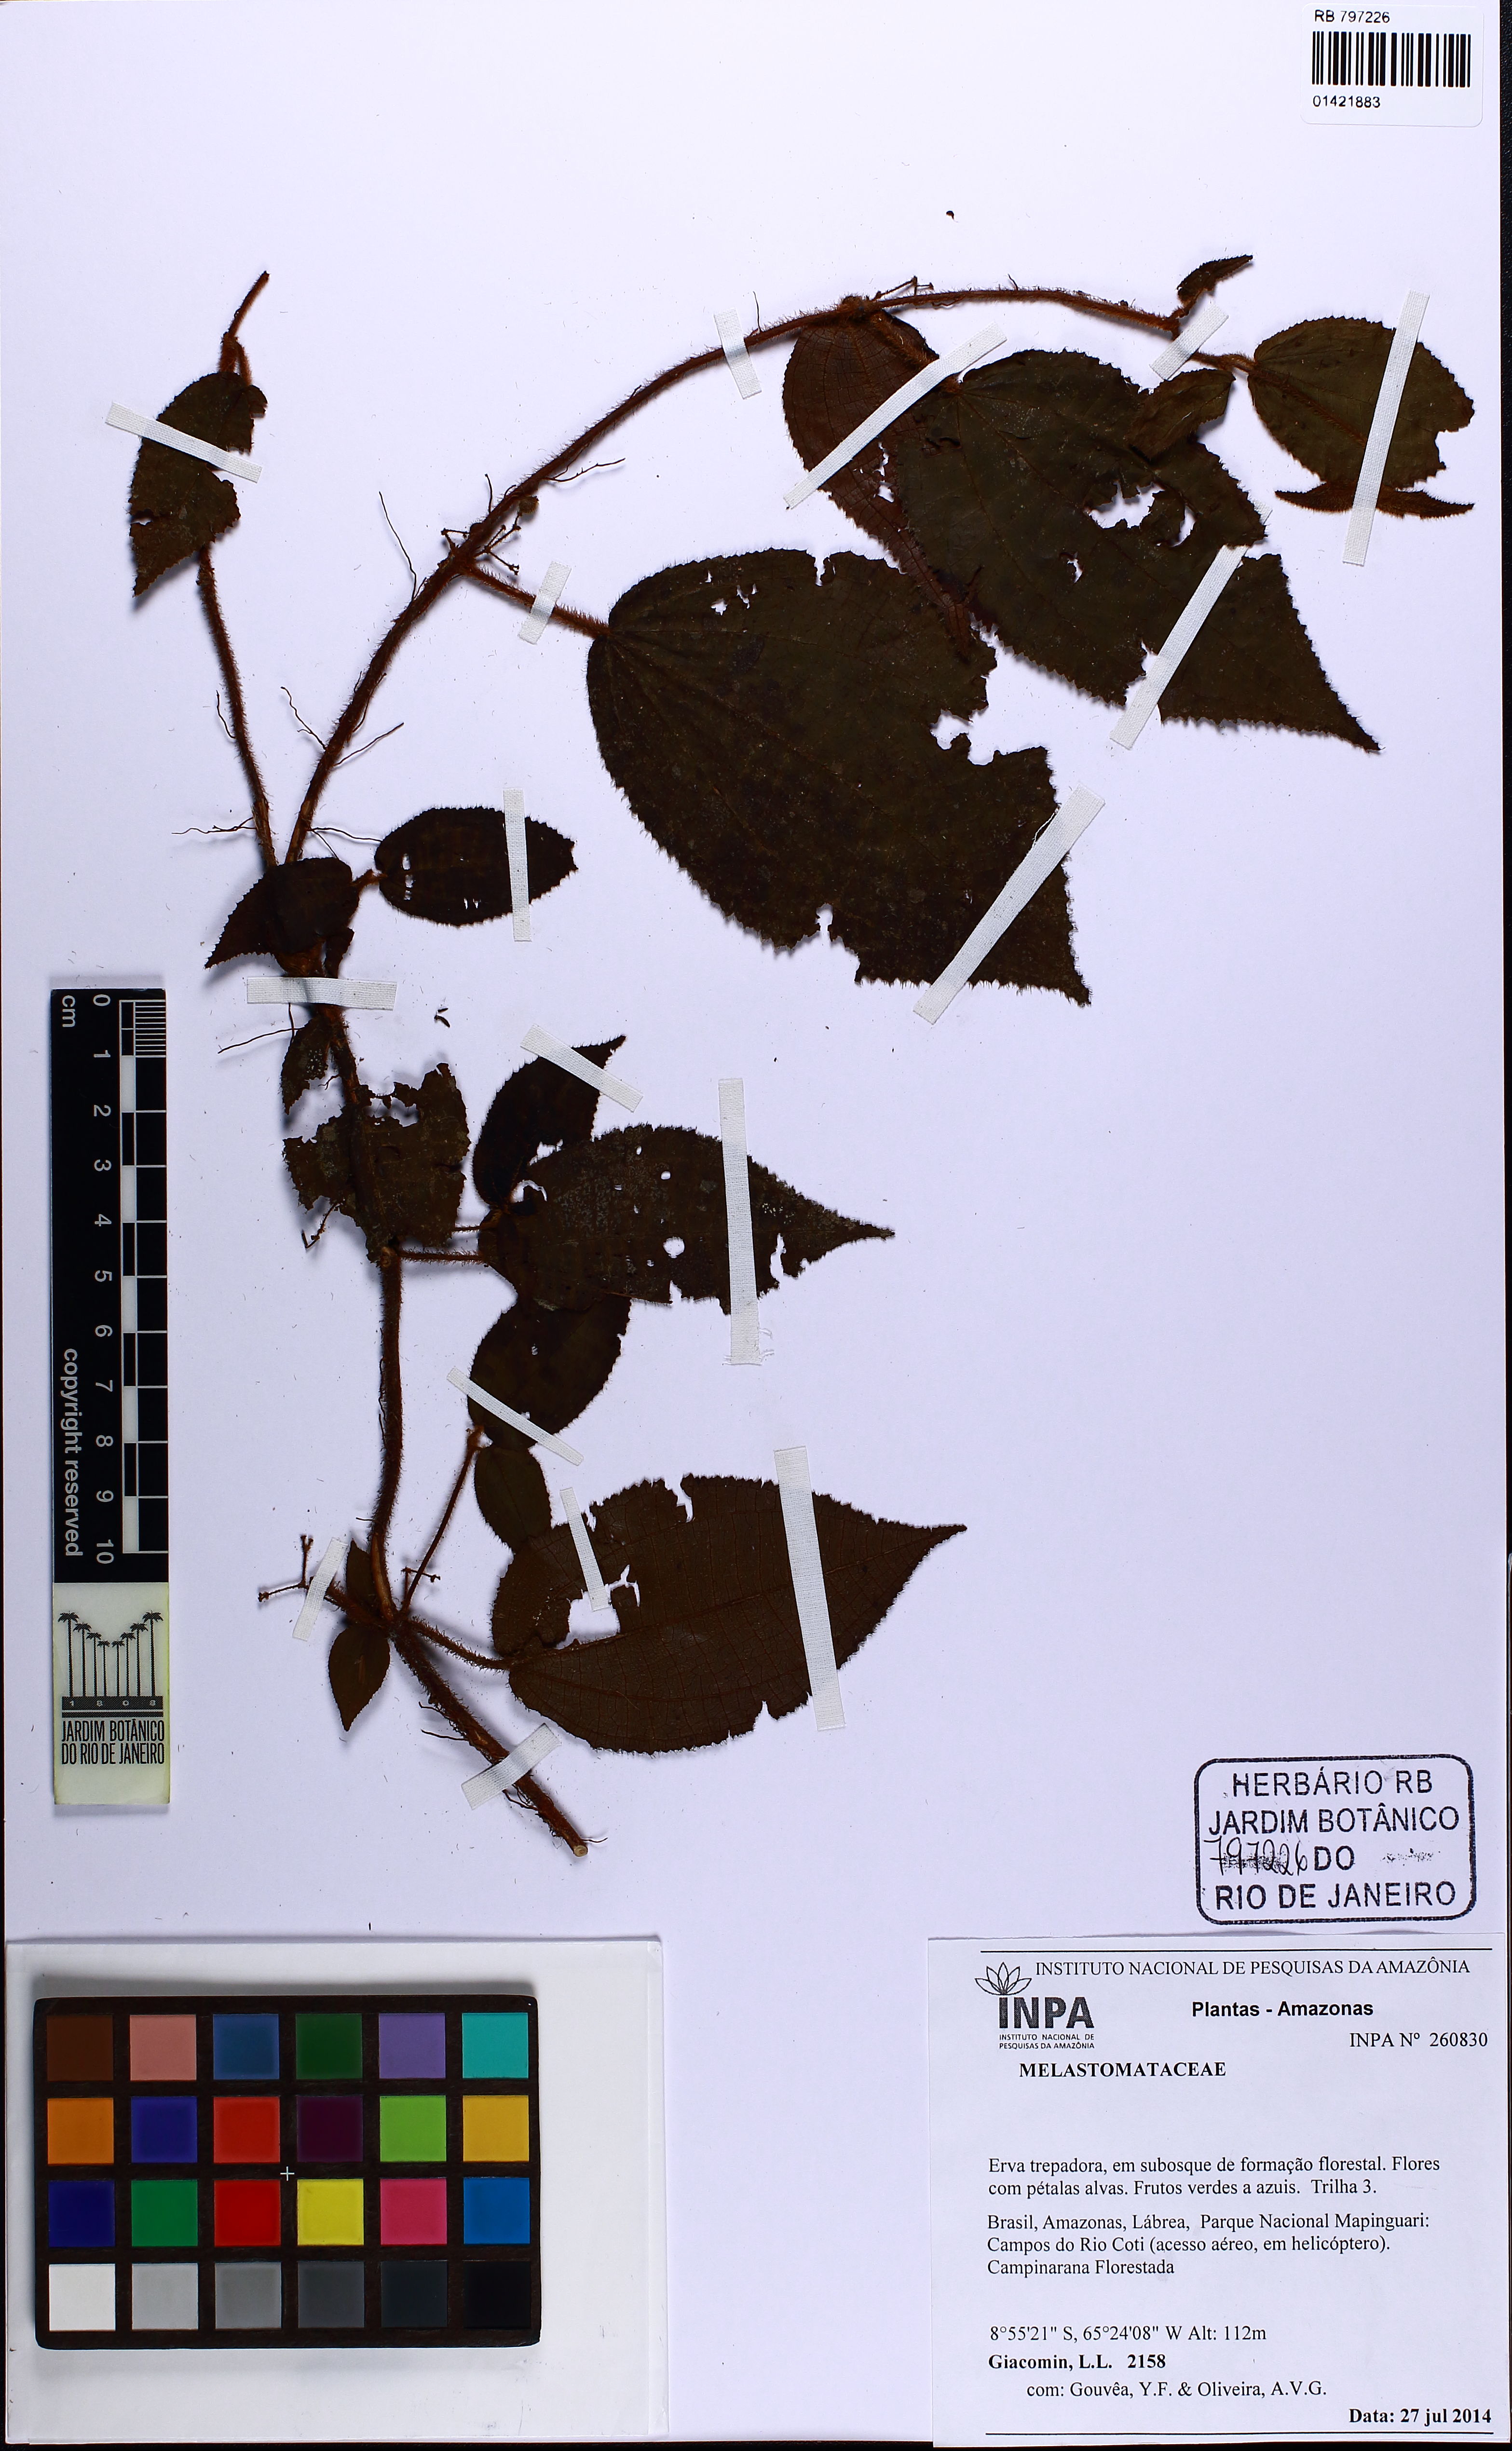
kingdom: Plantae
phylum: Tracheophyta
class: Magnoliopsida
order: Myrtales
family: Melastomataceae
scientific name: Melastomataceae
